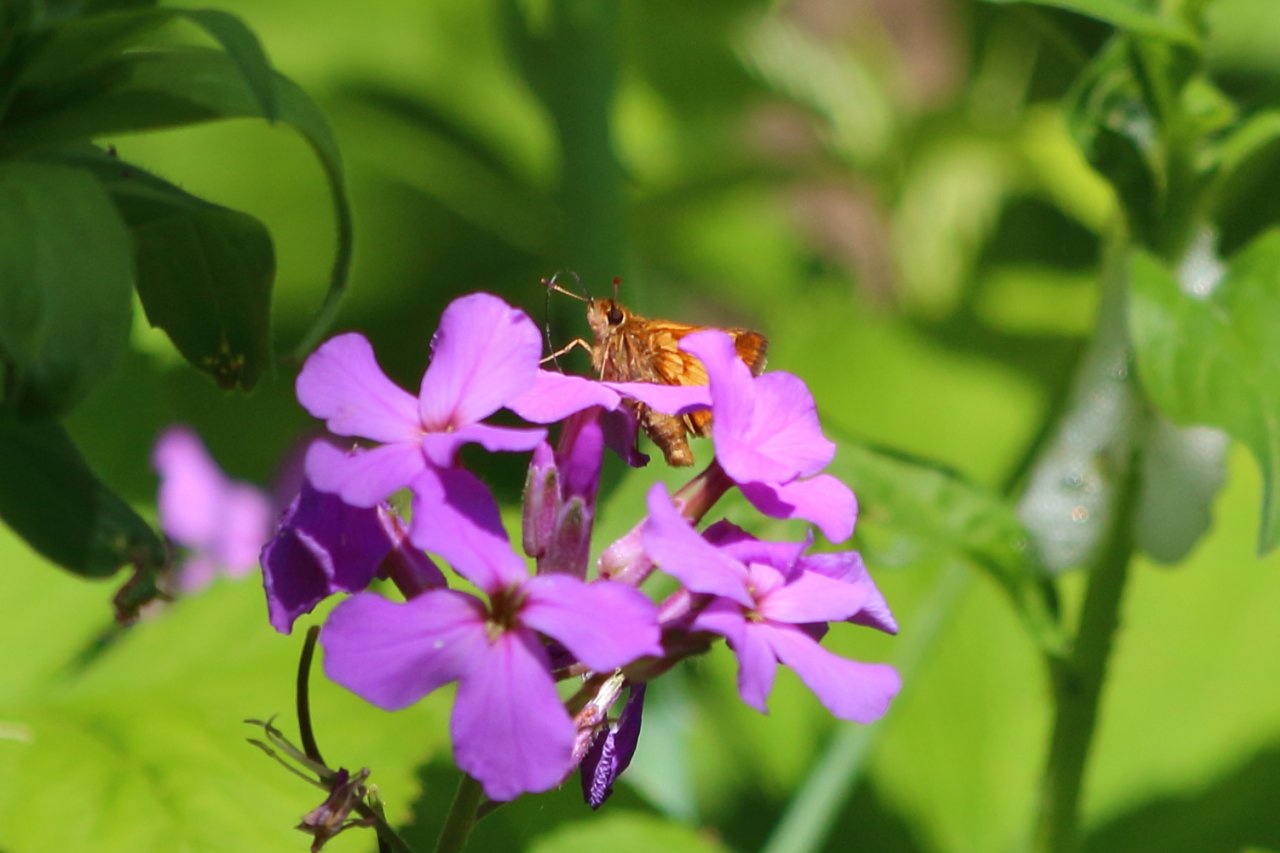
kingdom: Animalia
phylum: Arthropoda
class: Insecta
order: Lepidoptera
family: Hesperiidae
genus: Polites
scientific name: Polites coras
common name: Peck's Skipper
